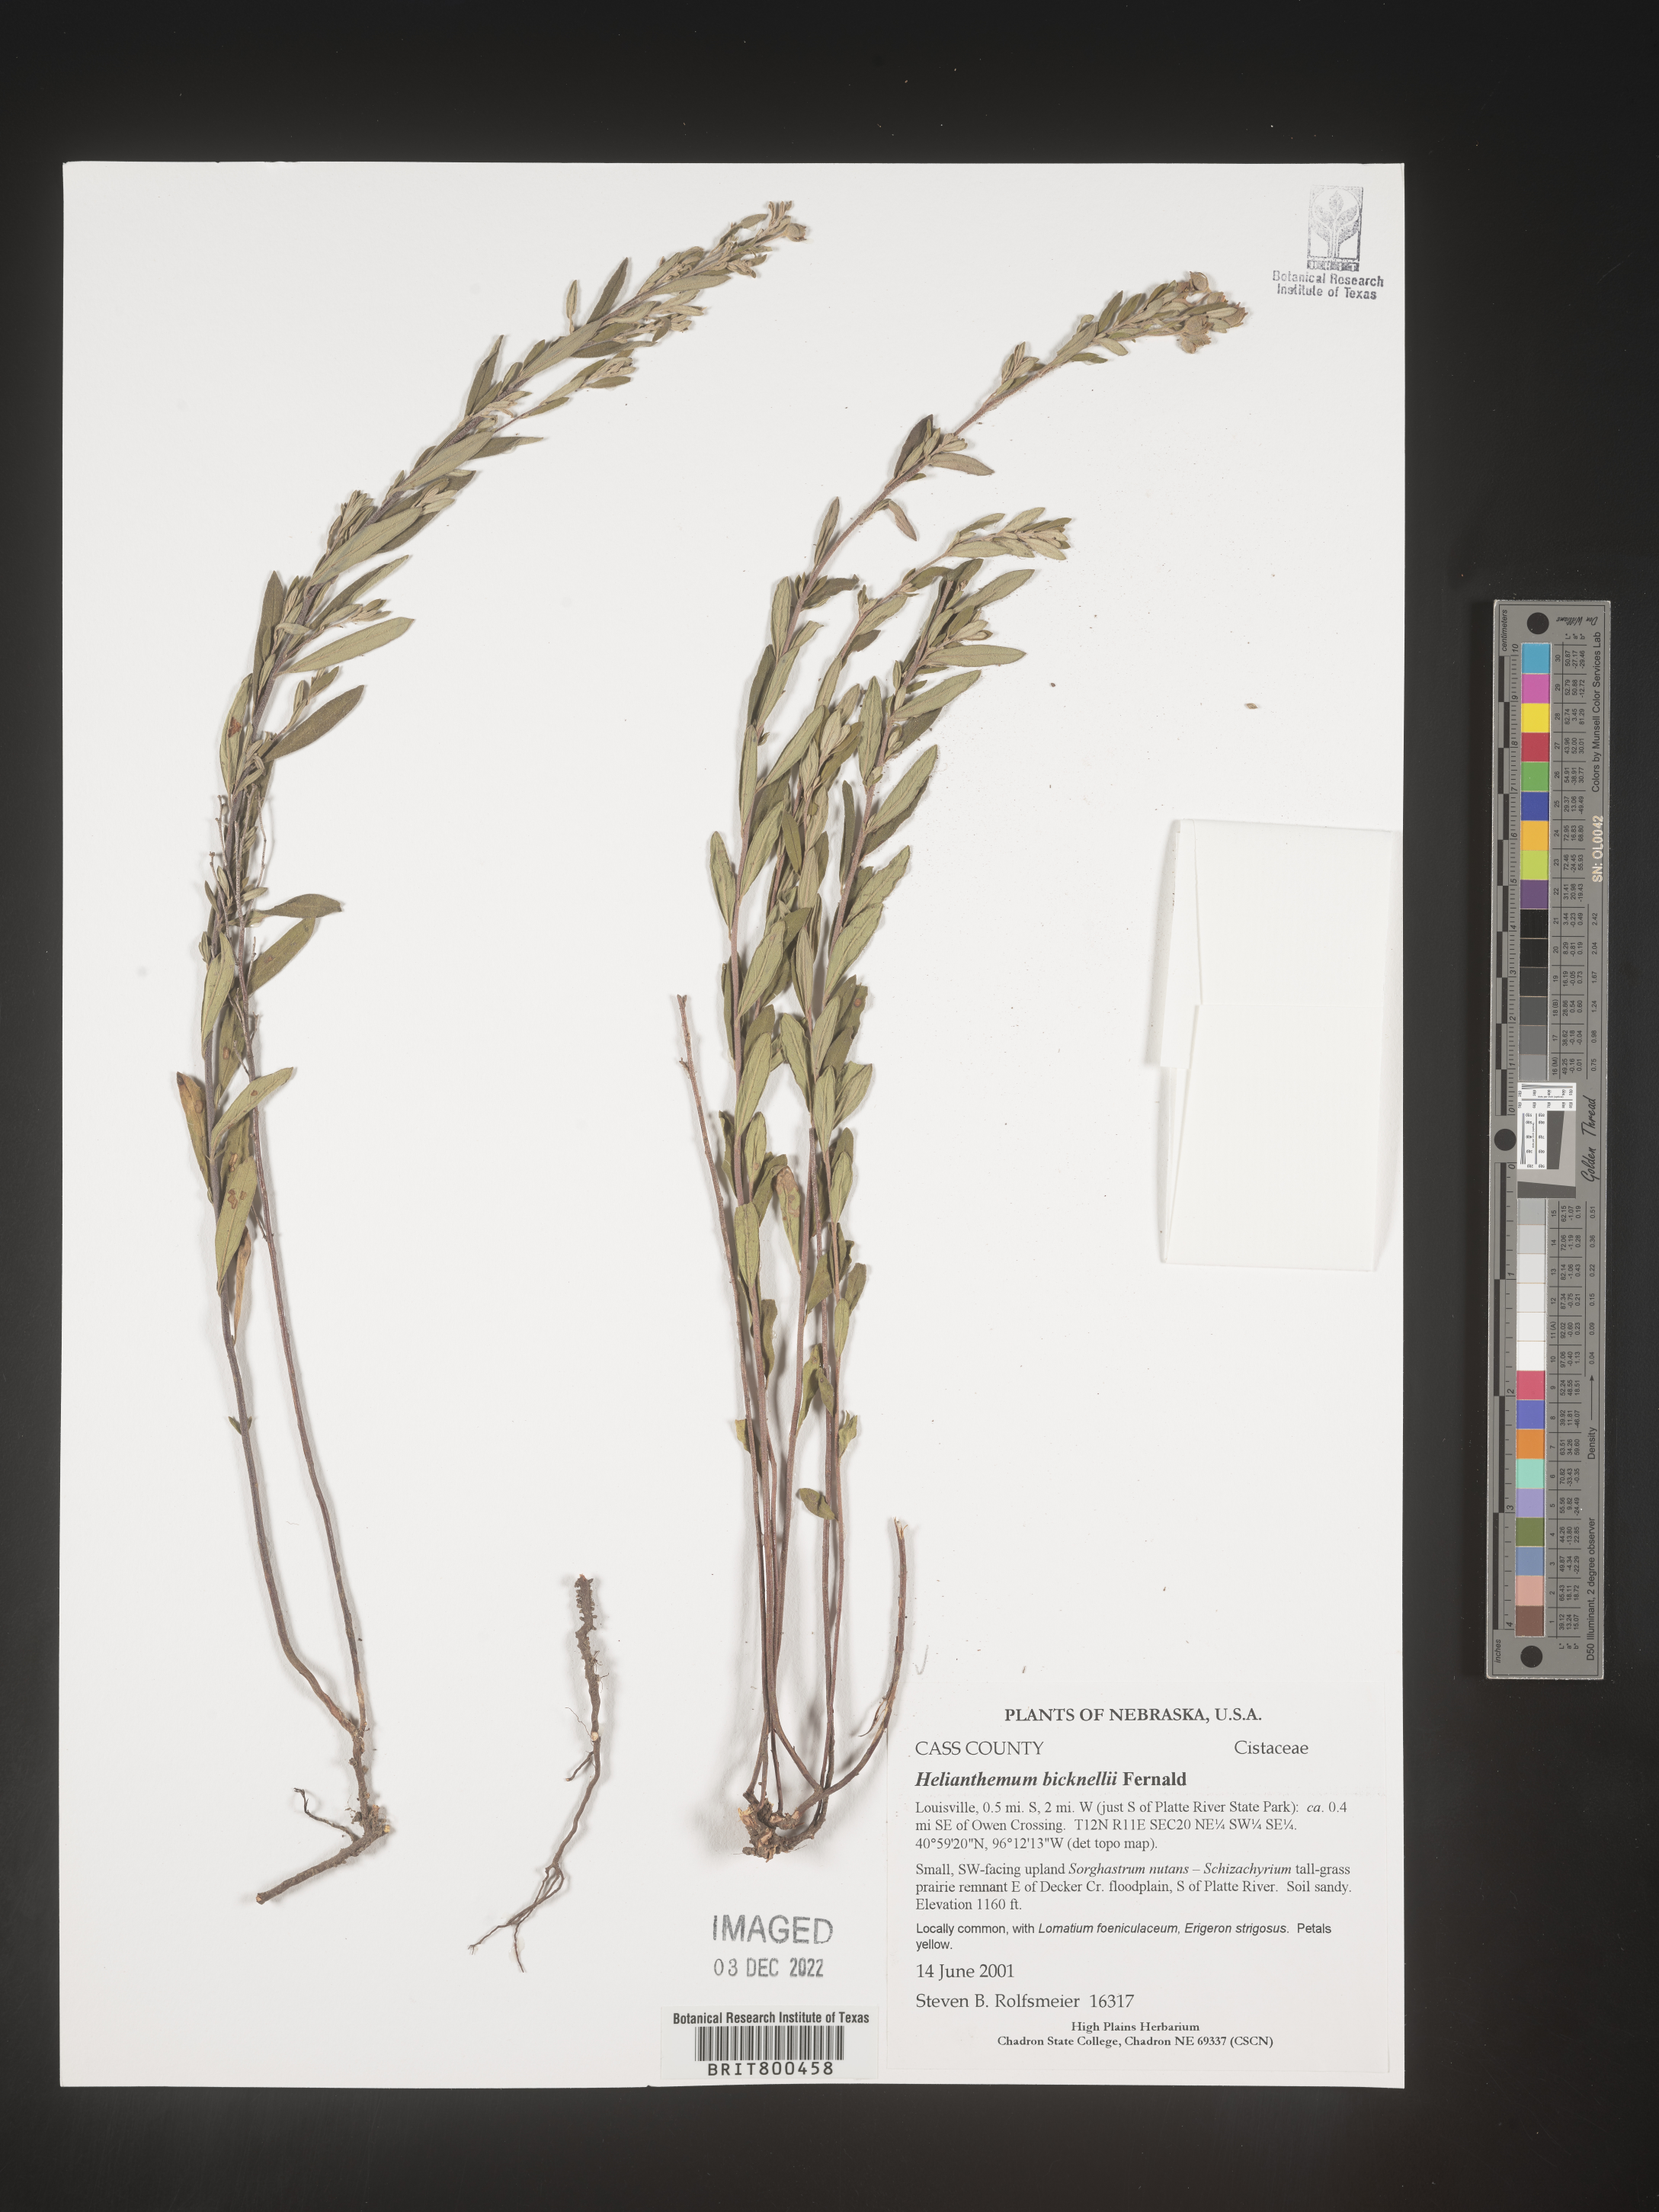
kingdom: Plantae
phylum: Tracheophyta
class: Magnoliopsida
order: Malvales
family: Cistaceae
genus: Helianthemum
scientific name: Helianthemum
